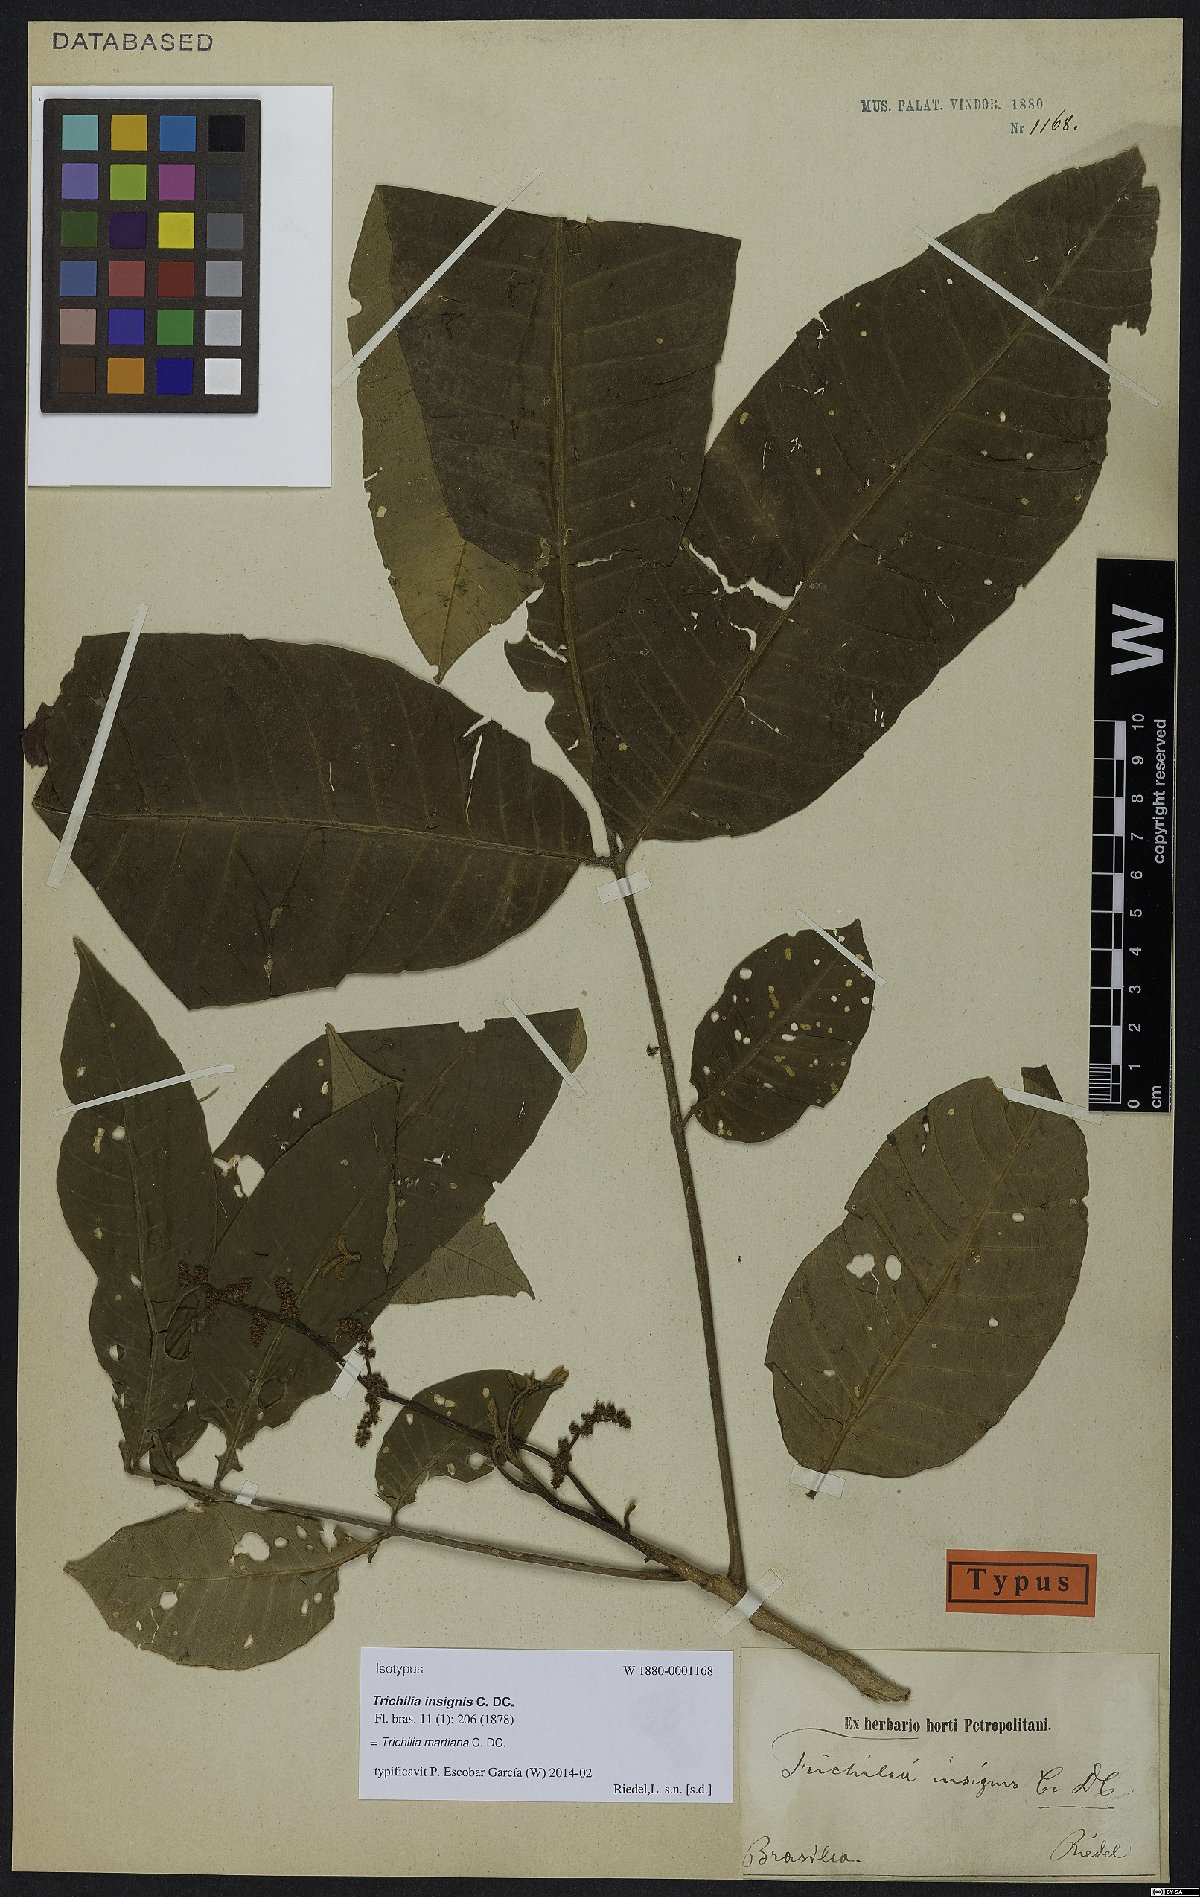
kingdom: Plantae
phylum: Tracheophyta
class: Magnoliopsida
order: Sapindales
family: Meliaceae
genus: Trichilia
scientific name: Trichilia martiana
